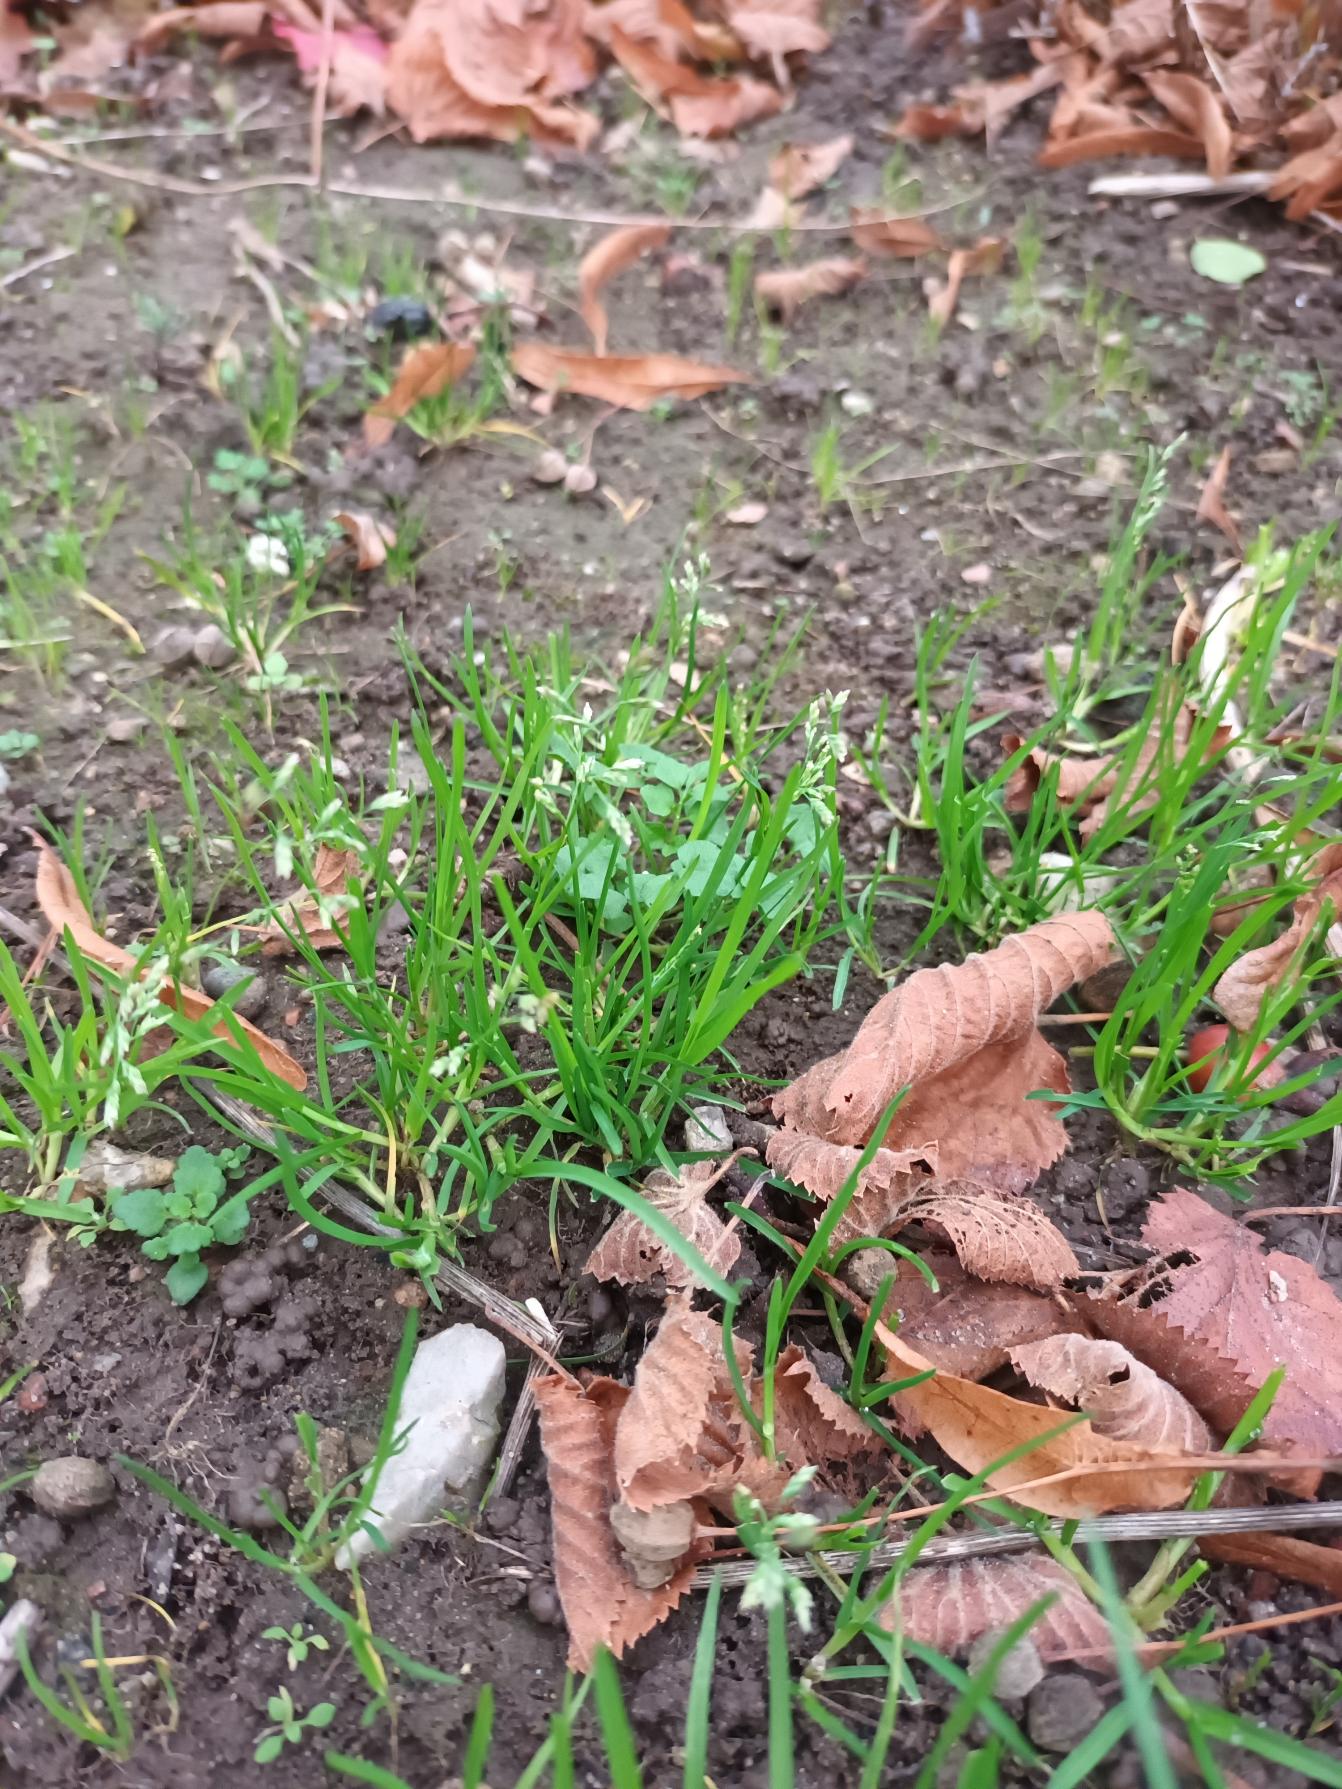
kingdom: Plantae
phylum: Tracheophyta
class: Liliopsida
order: Poales
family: Poaceae
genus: Poa
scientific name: Poa annua
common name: Enårig rapgræs
